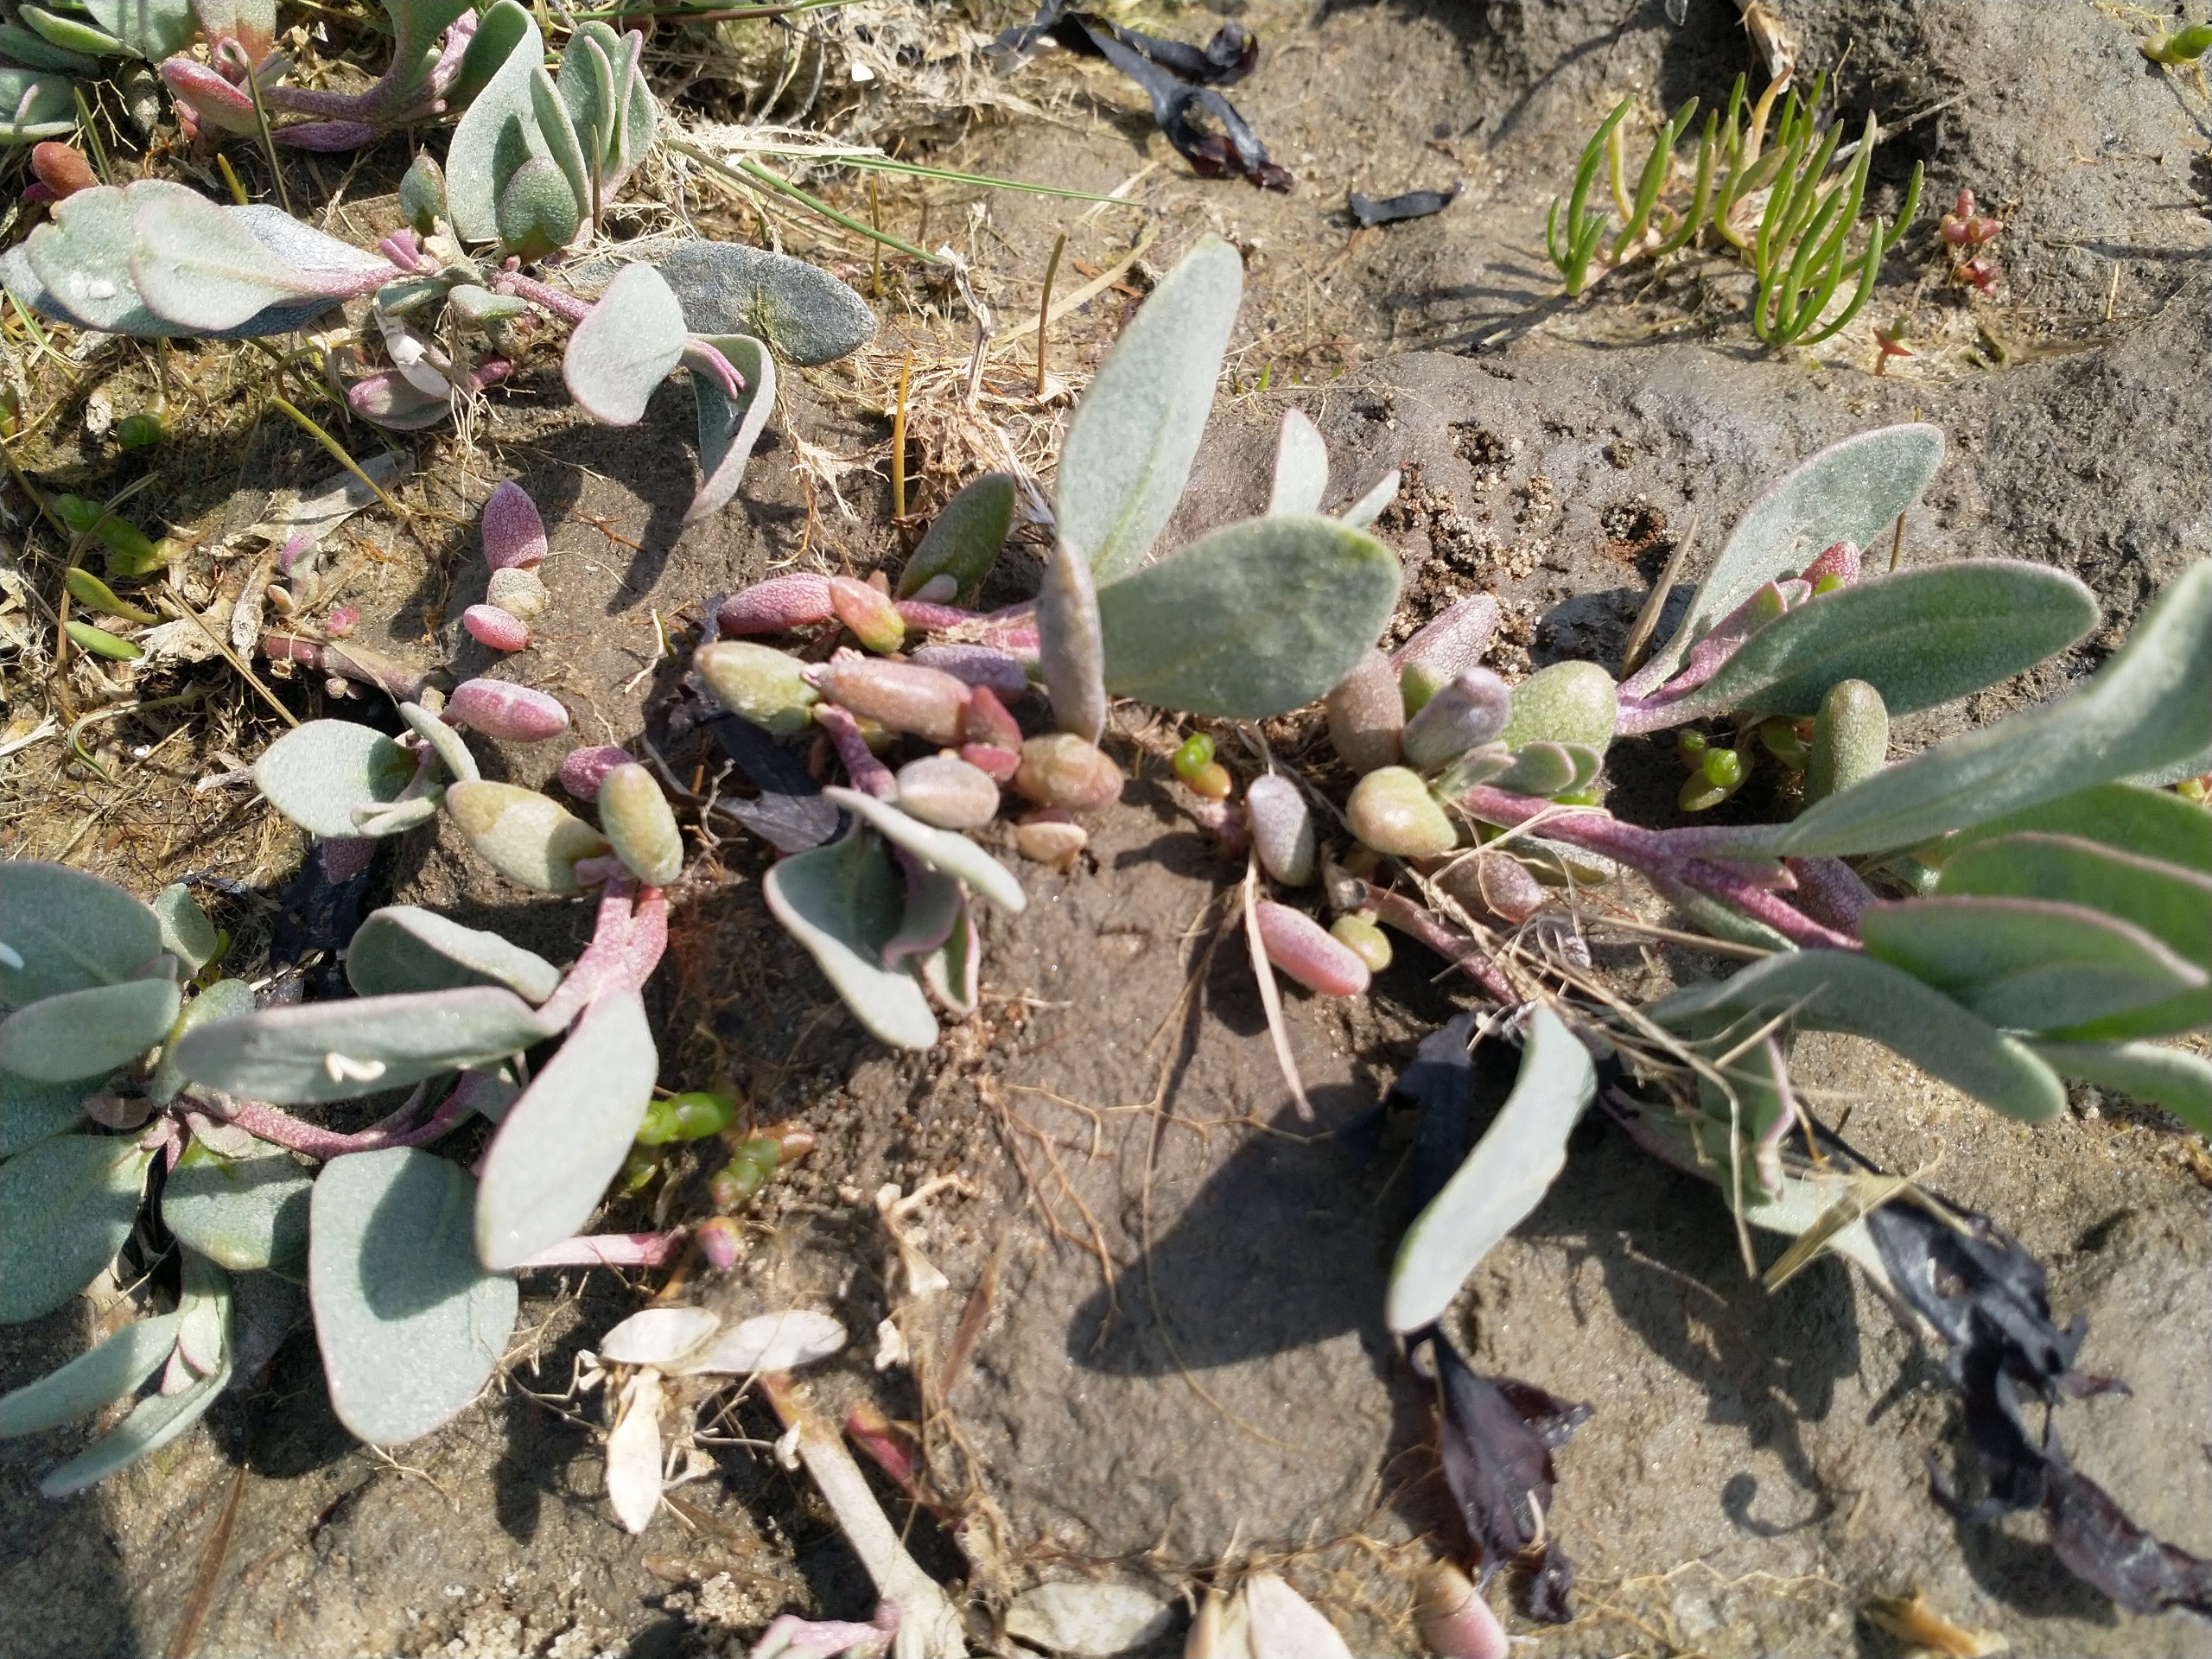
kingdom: Plantae
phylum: Tracheophyta
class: Magnoliopsida
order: Caryophyllales
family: Amaranthaceae
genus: Halimione
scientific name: Halimione portulacoides
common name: Stilkløs kilebæger
